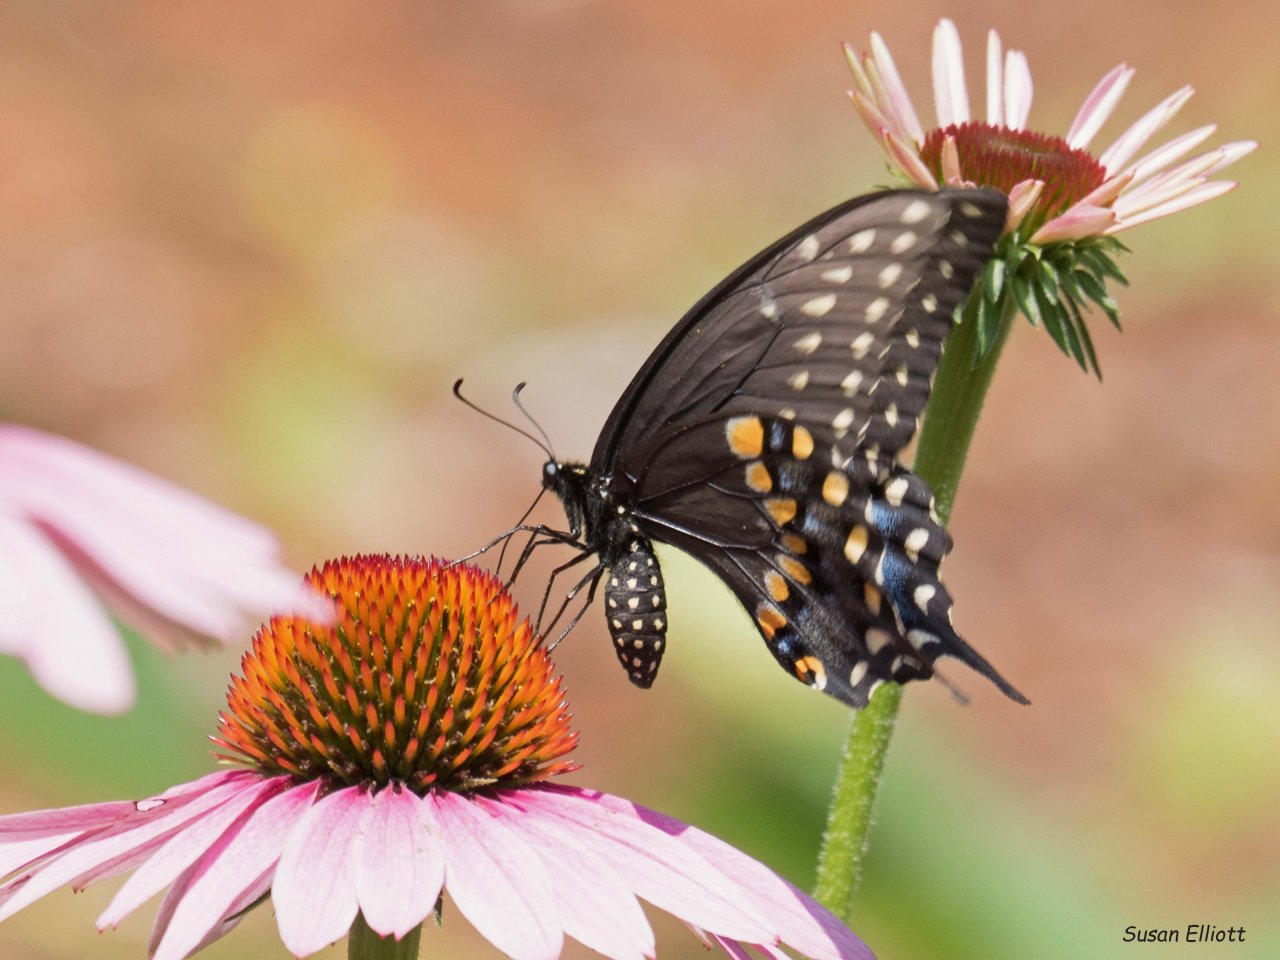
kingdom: Animalia
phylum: Arthropoda
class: Insecta
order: Lepidoptera
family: Papilionidae
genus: Papilio
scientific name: Papilio polyxenes
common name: Black Swallowtail
